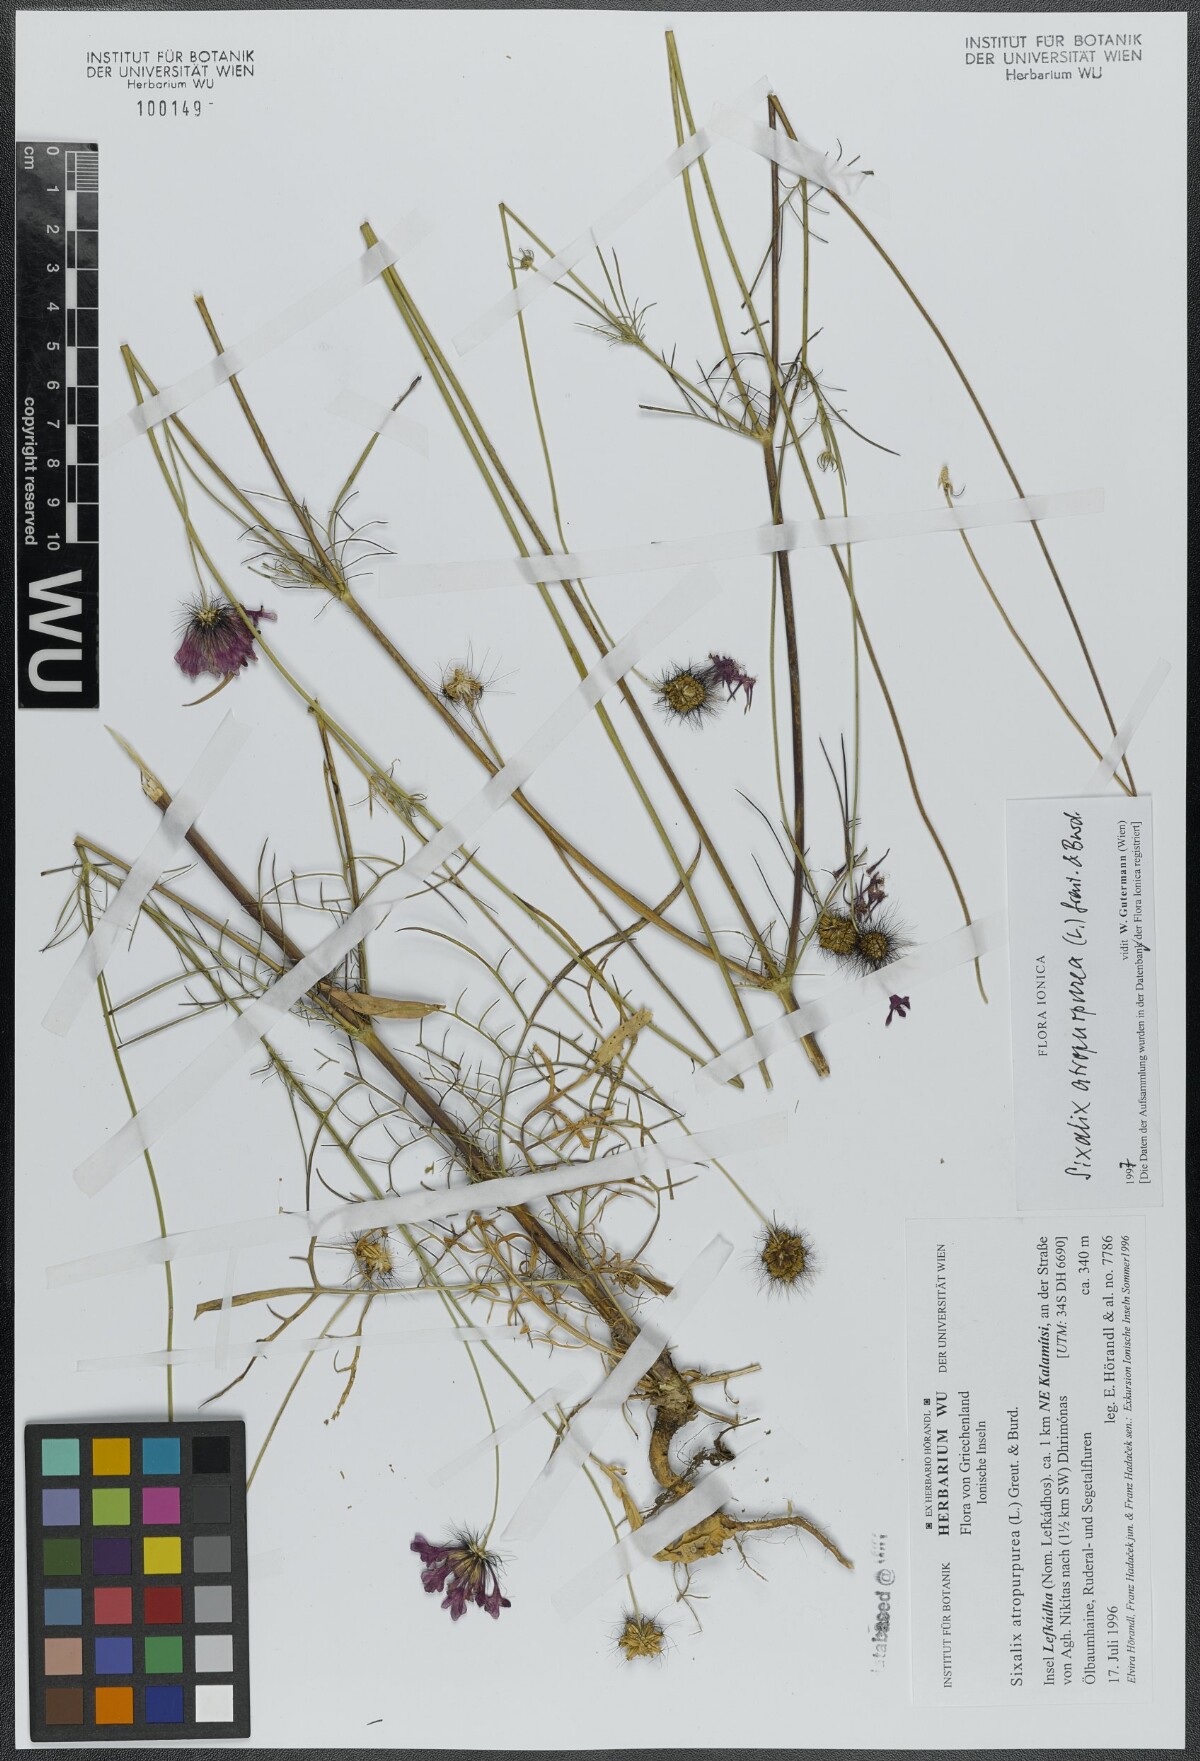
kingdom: Plantae
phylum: Tracheophyta
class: Magnoliopsida
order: Dipsacales
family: Caprifoliaceae
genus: Sixalix
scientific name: Sixalix atropurpurea
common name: Sweet scabious
